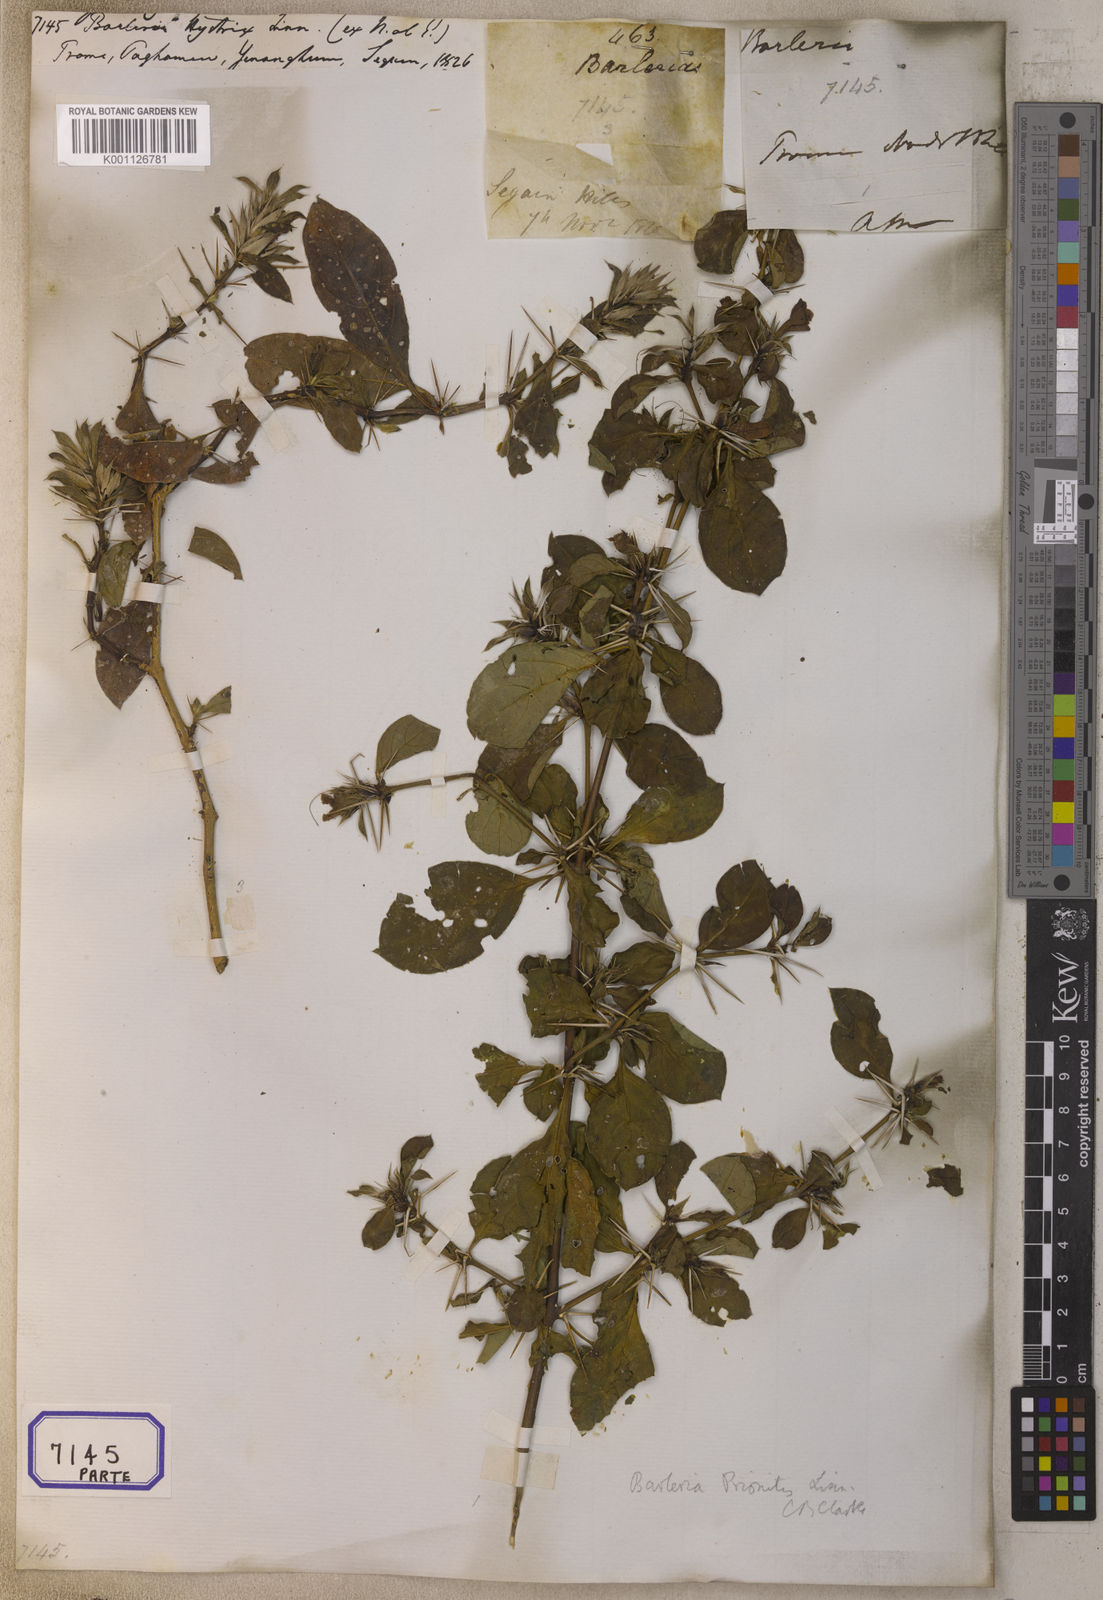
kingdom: Plantae
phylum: Tracheophyta
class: Magnoliopsida
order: Lamiales
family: Acanthaceae
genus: Barleria
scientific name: Barleria prionitis
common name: Barleria
